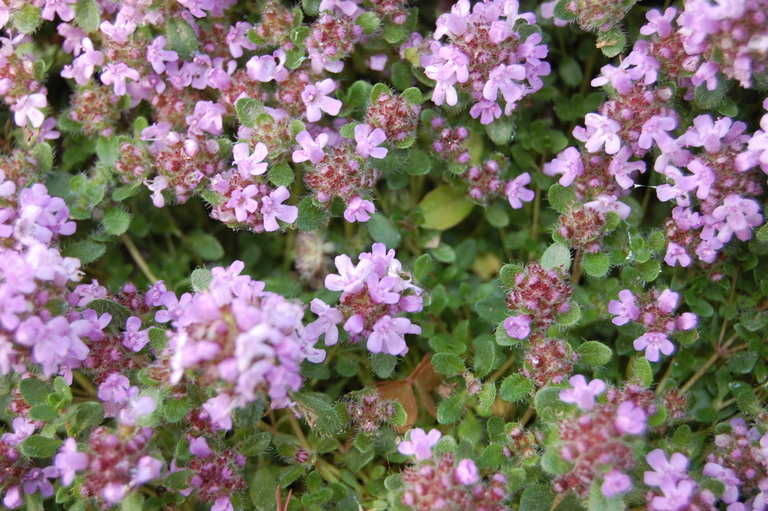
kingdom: Plantae
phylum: Tracheophyta
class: Magnoliopsida
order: Lamiales
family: Lamiaceae
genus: Thymus
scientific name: Thymus praecox
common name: Wild thyme
